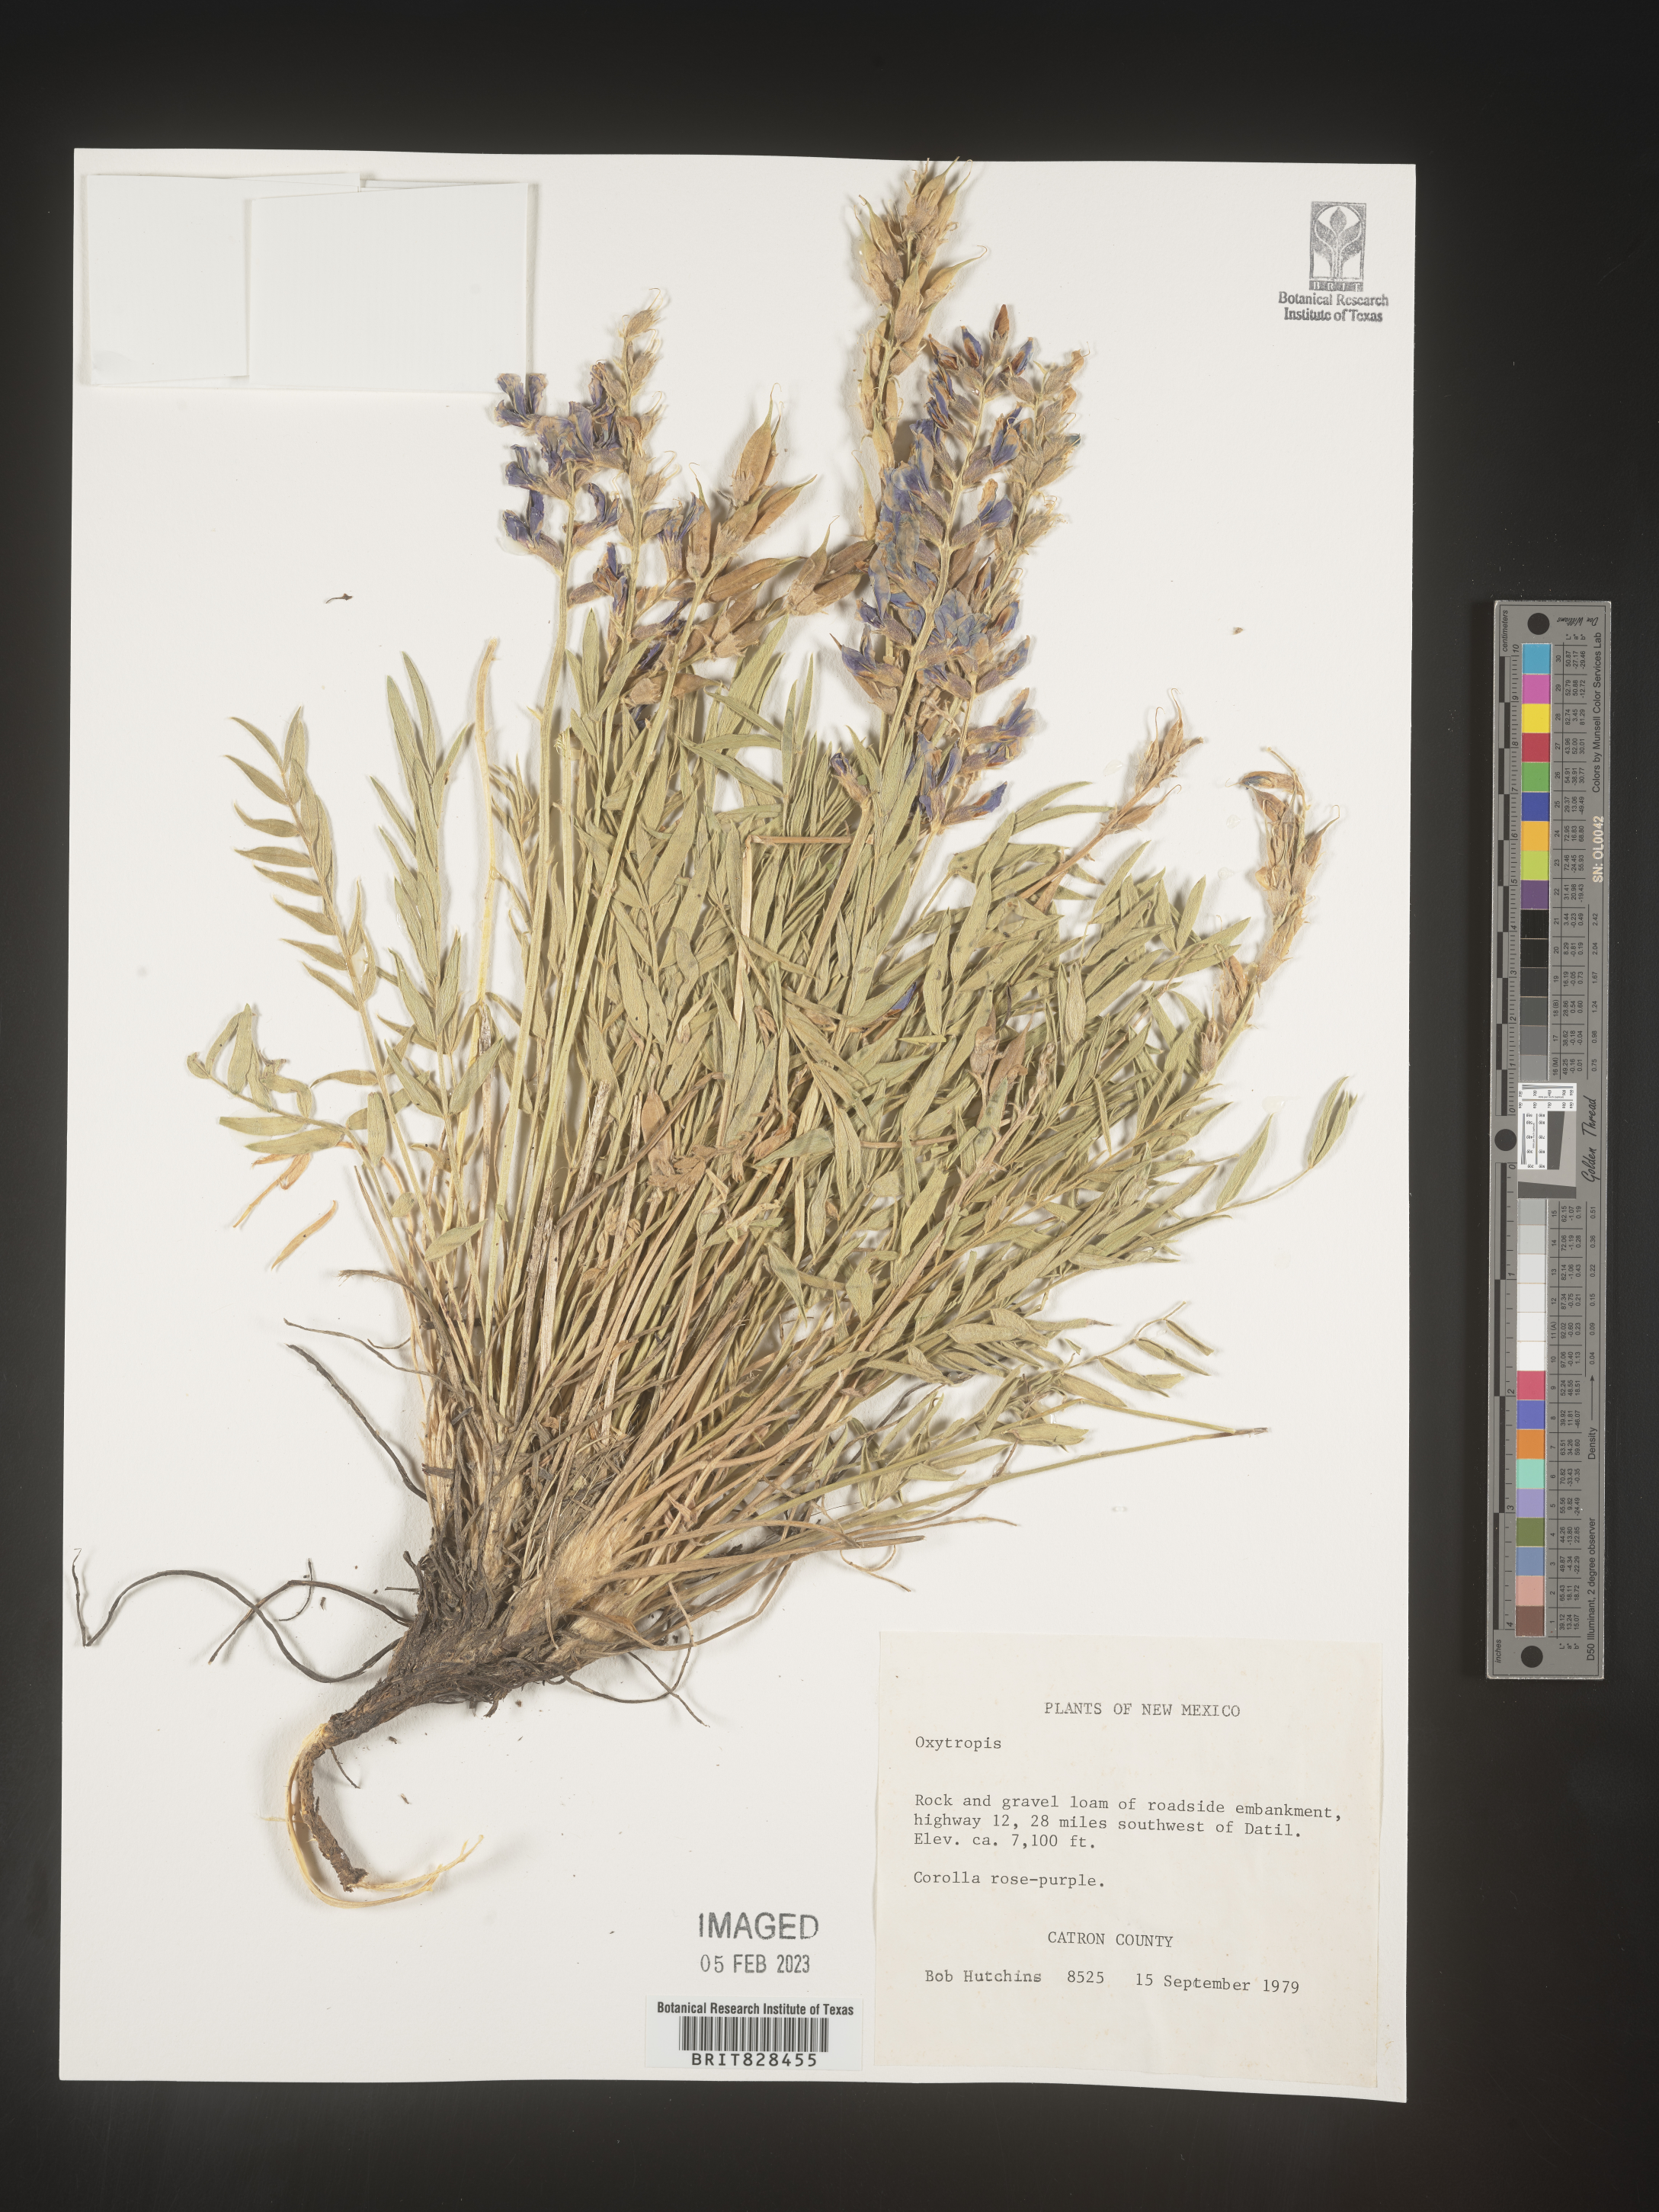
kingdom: Plantae
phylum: Tracheophyta
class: Magnoliopsida
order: Fabales
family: Fabaceae
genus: Oxytropis
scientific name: Oxytropis
